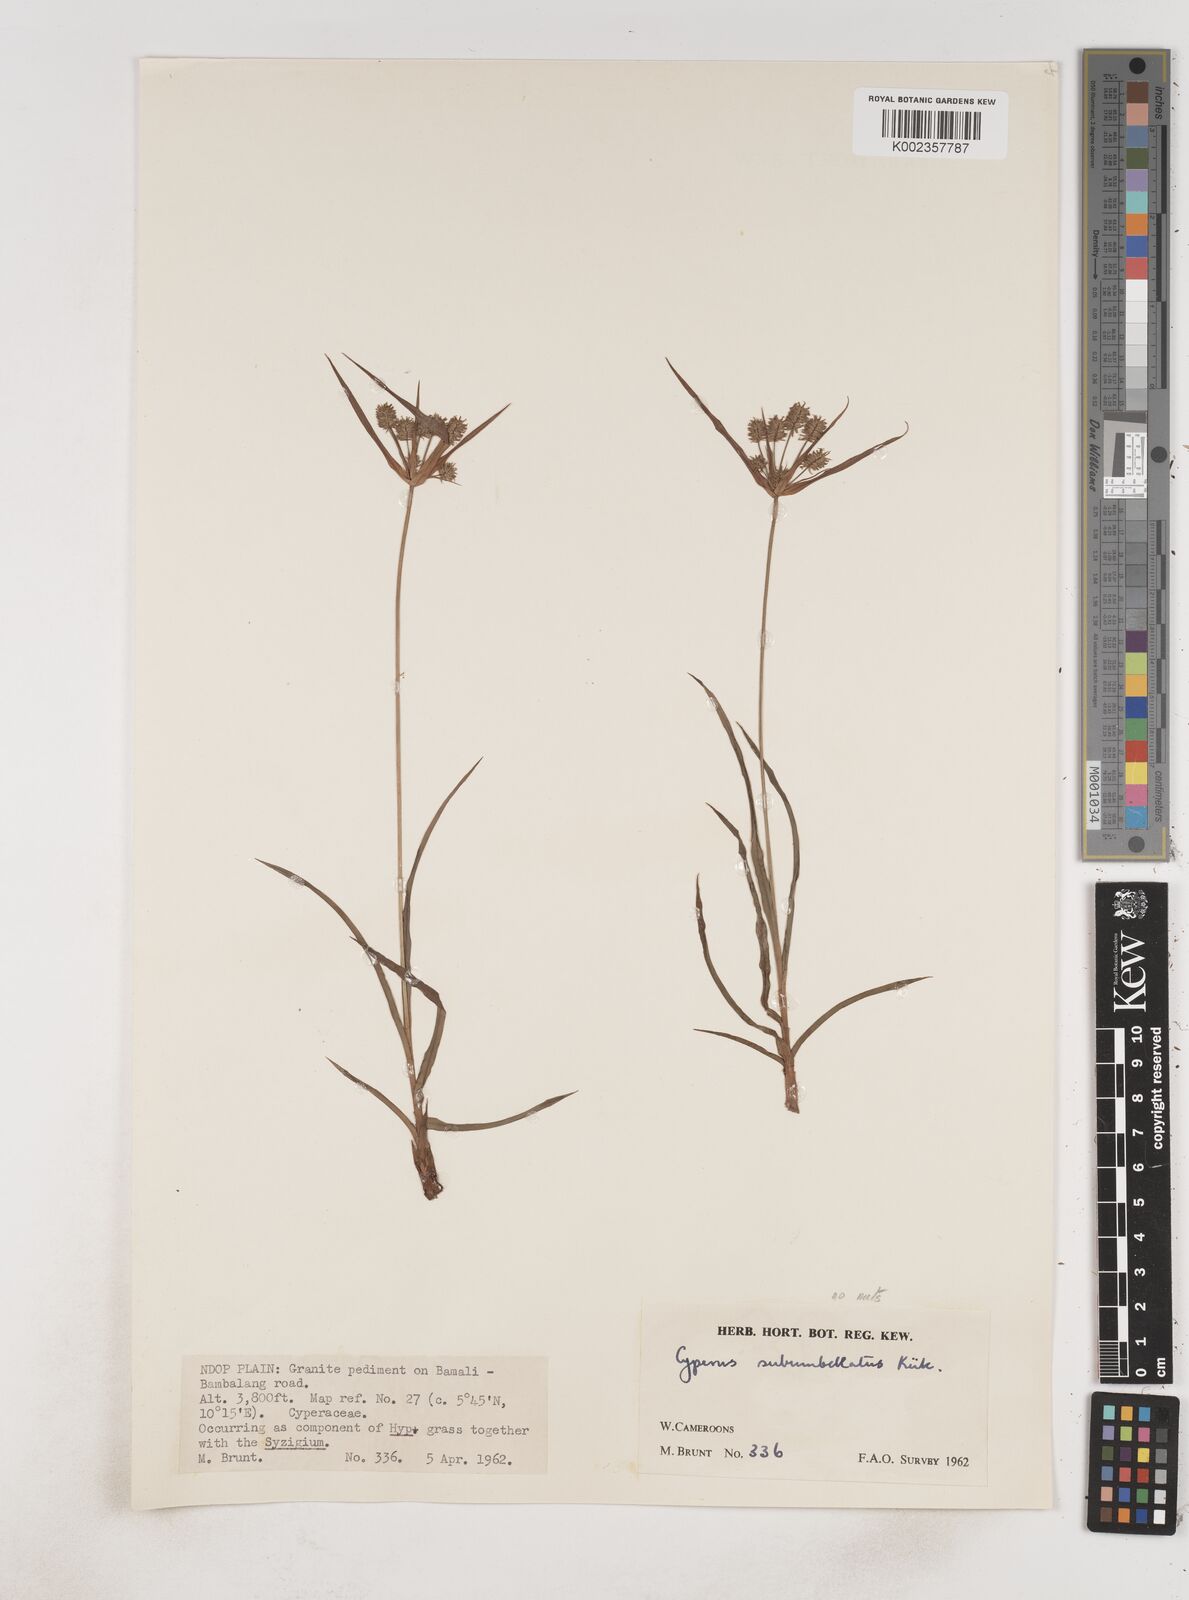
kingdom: Plantae
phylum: Tracheophyta
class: Liliopsida
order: Poales
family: Cyperaceae
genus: Cyperus
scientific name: Cyperus sublimis
